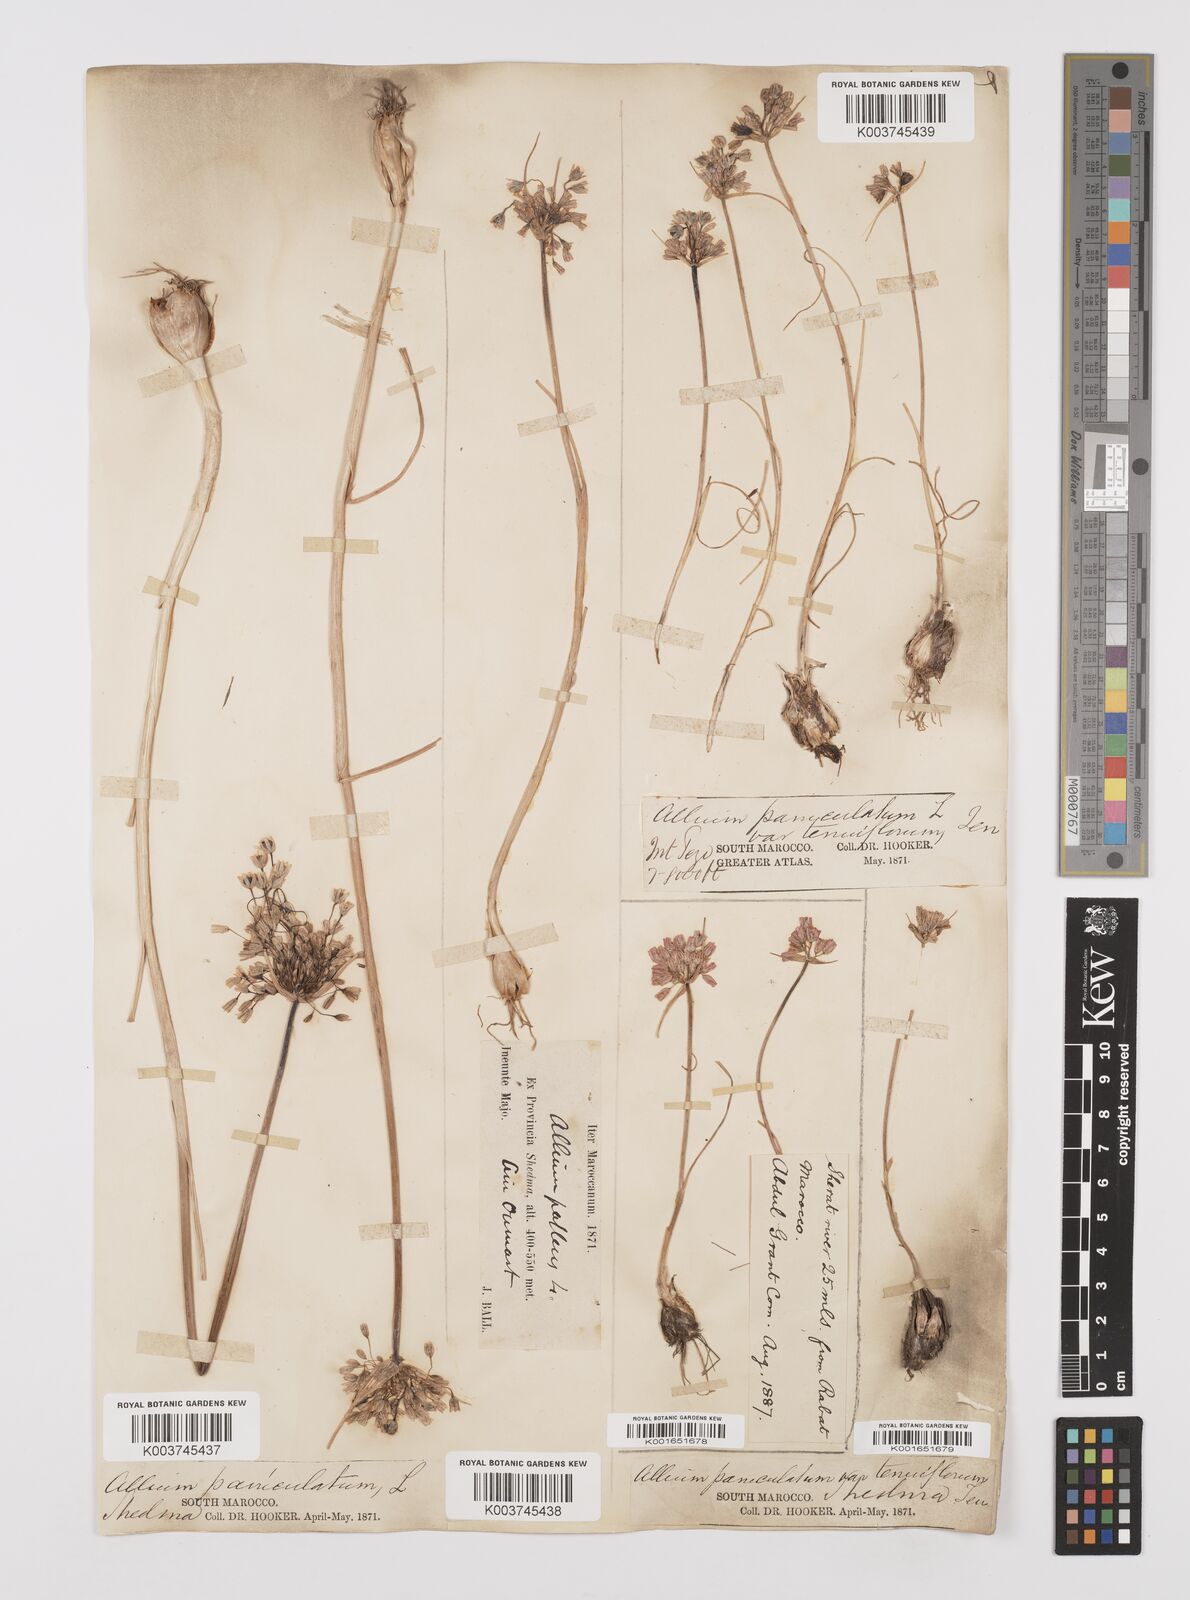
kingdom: Plantae
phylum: Tracheophyta
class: Liliopsida
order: Asparagales
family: Amaryllidaceae
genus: Allium
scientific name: Allium paniculatum
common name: Pale garlic
